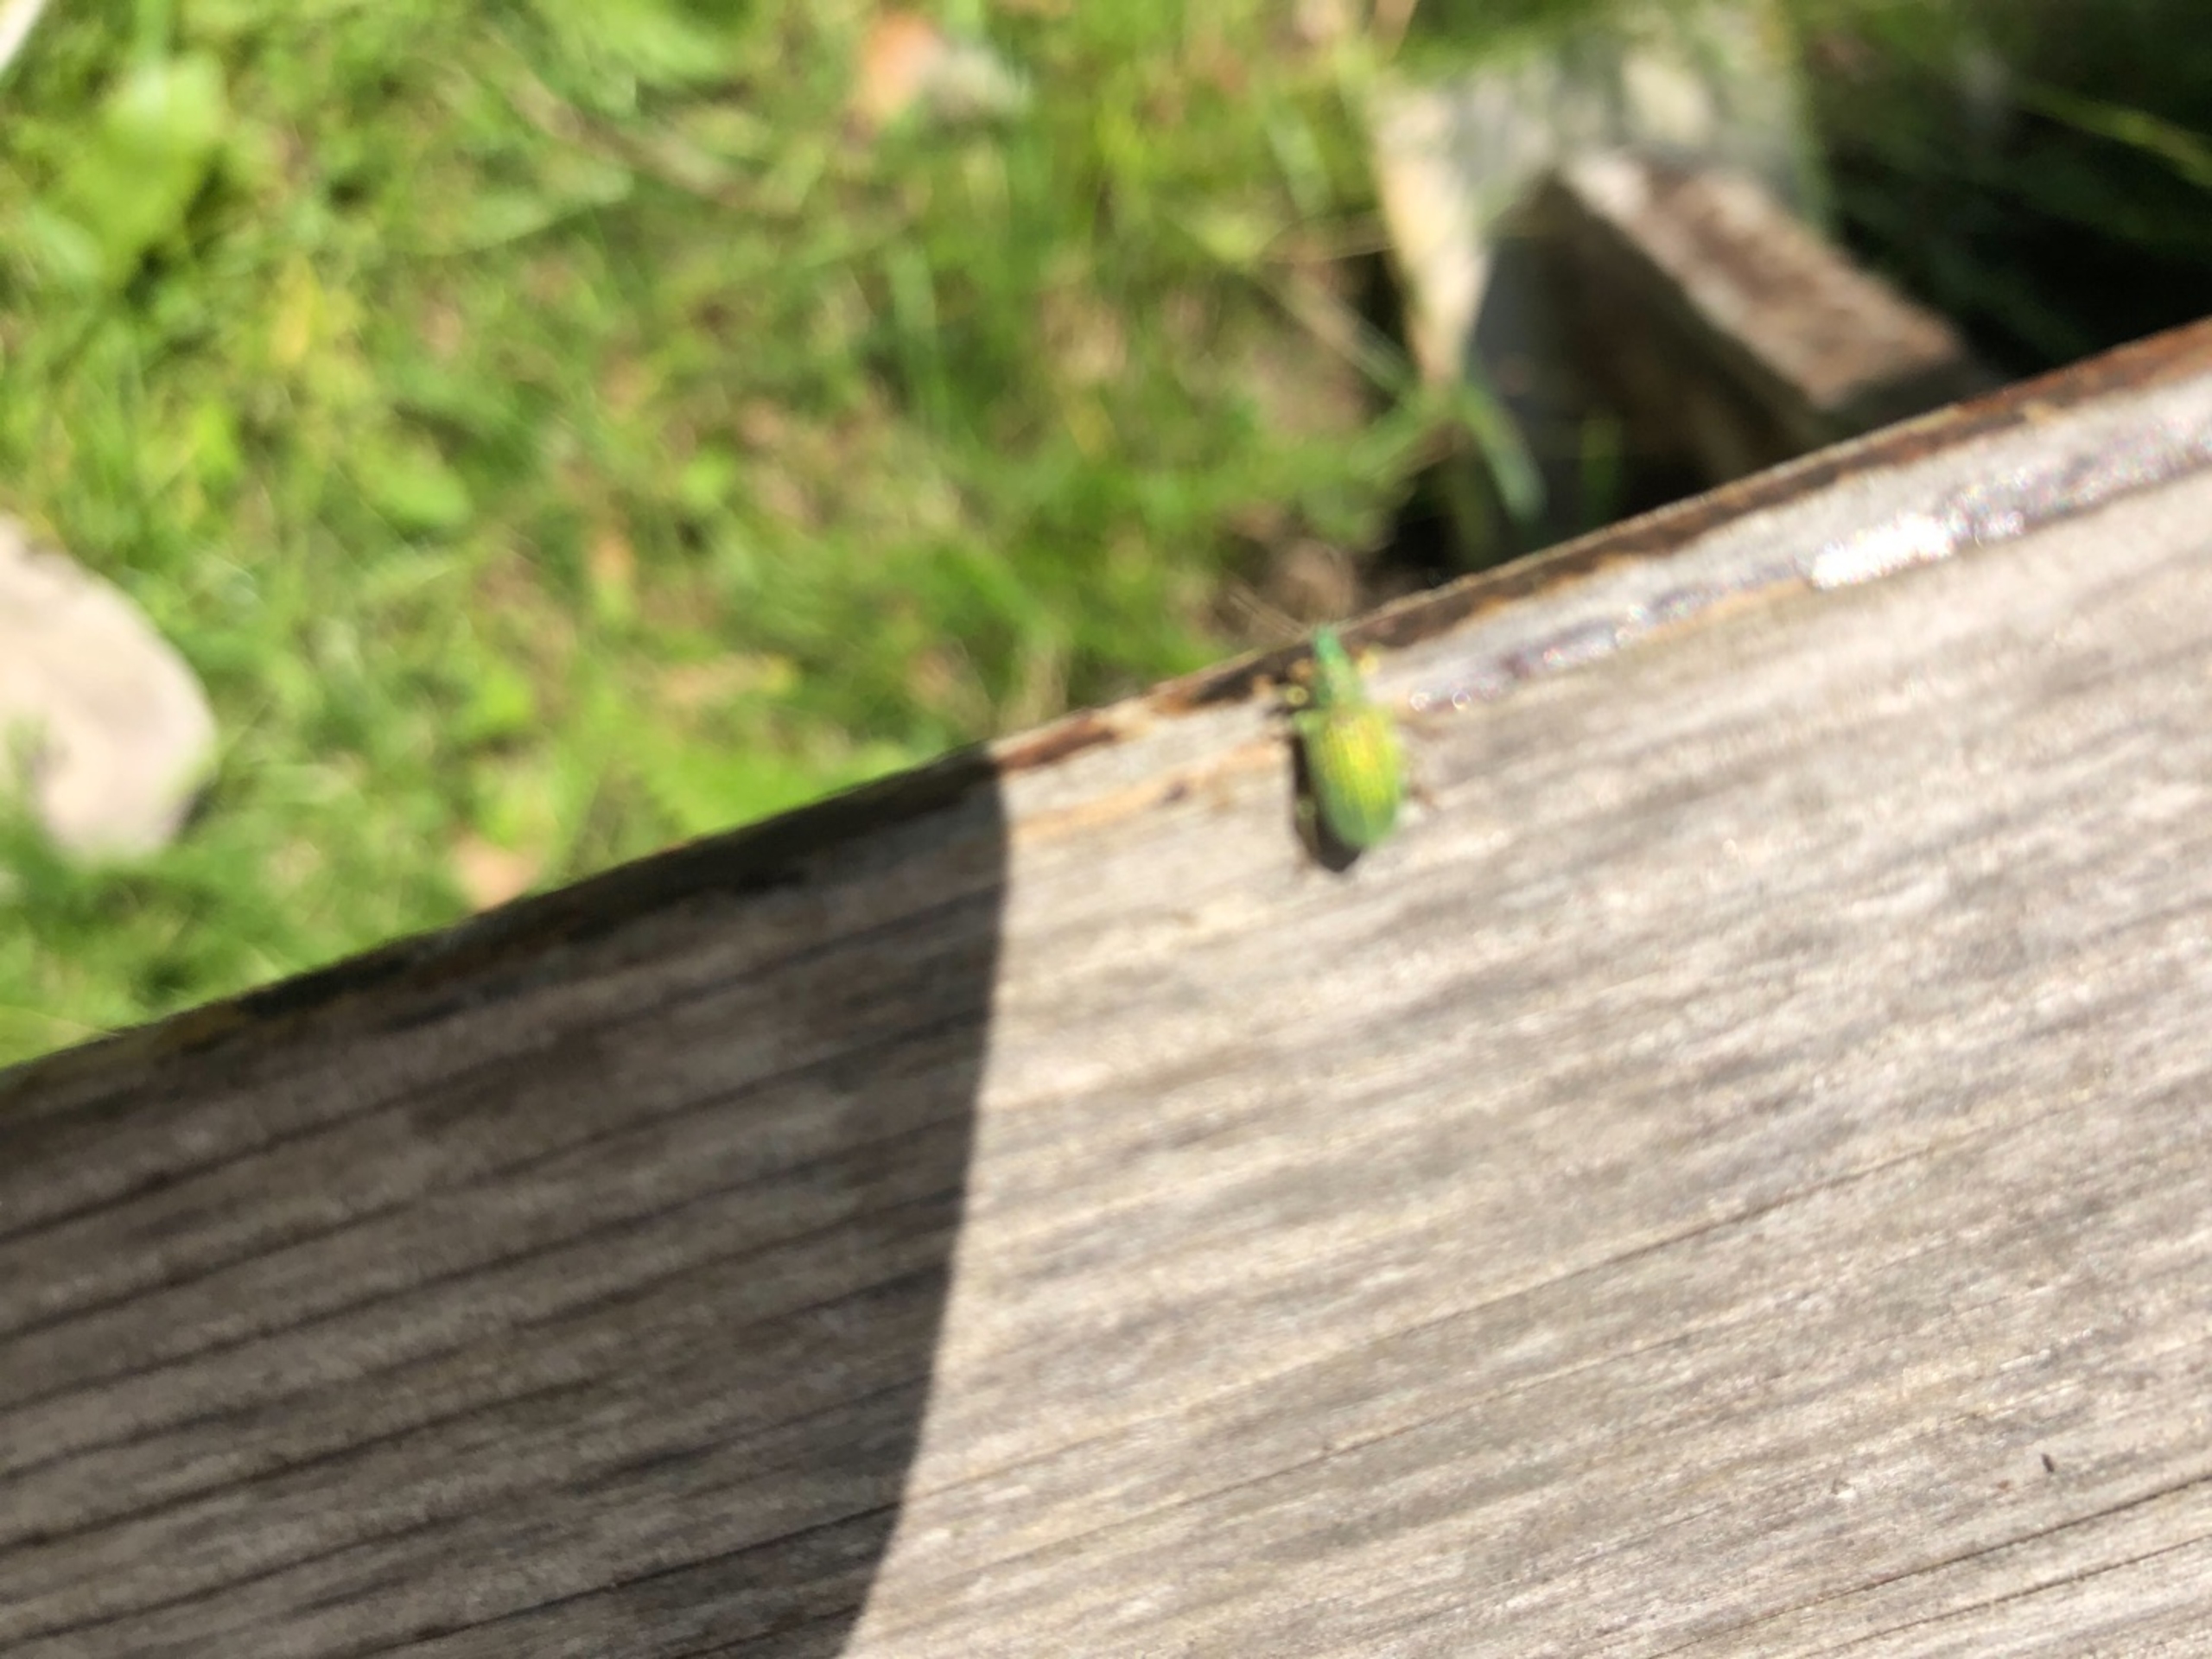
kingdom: Animalia
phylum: Arthropoda
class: Insecta
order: Coleoptera
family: Curculionidae
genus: Polydrusus
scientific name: Polydrusus formosus
